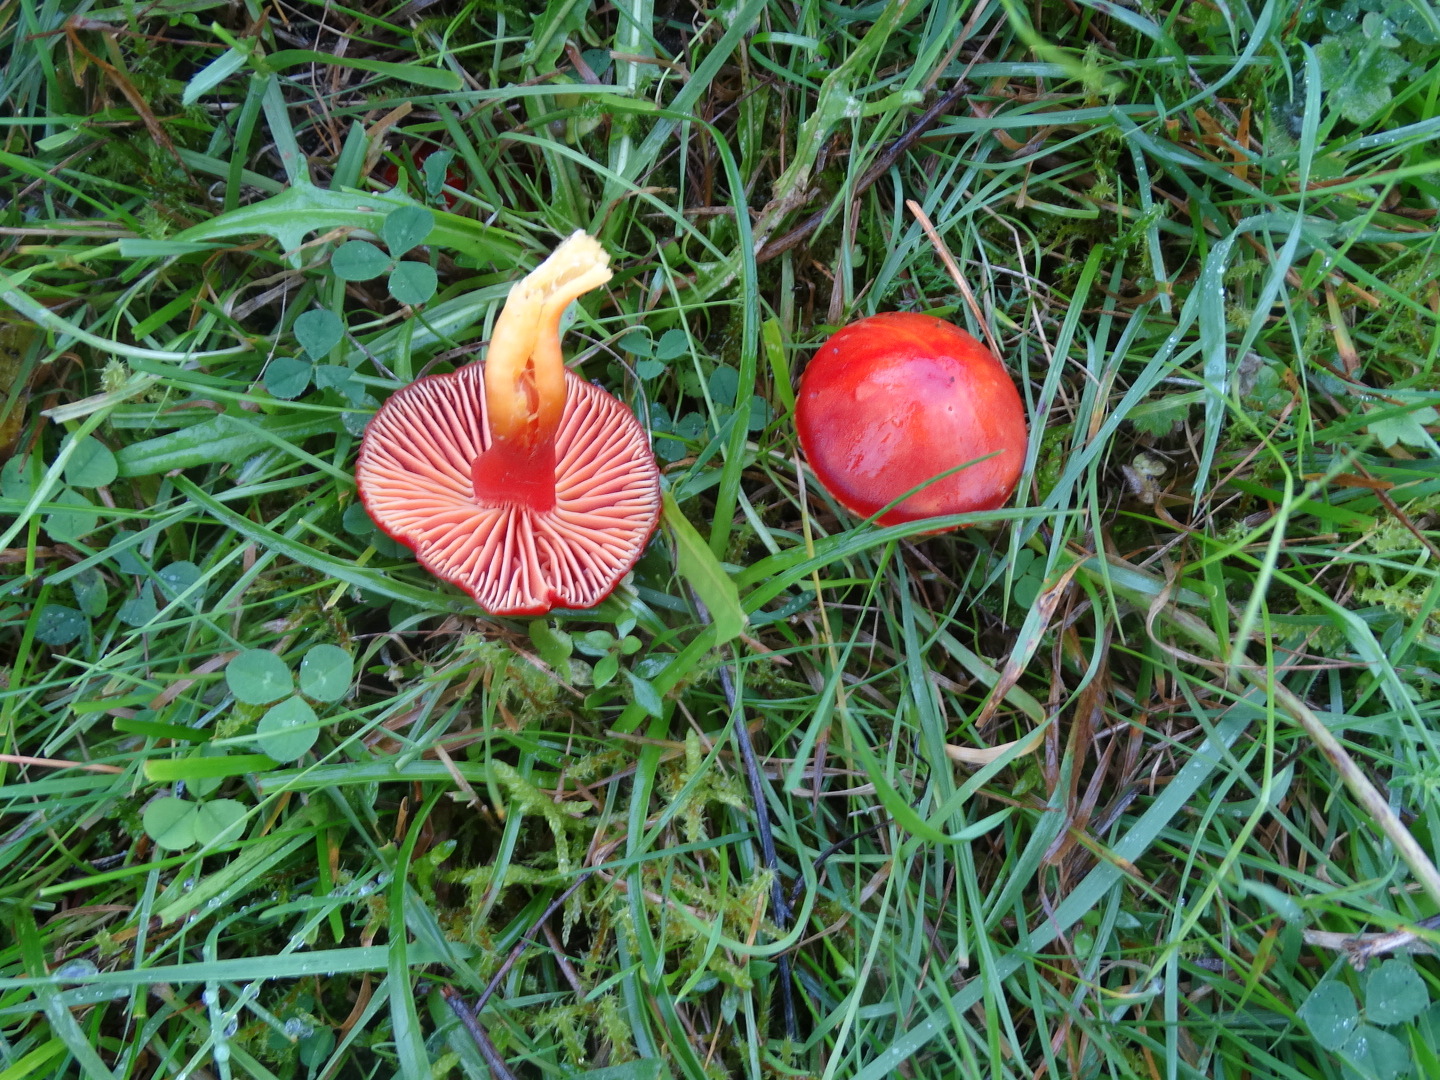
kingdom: Fungi
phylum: Basidiomycota
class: Agaricomycetes
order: Agaricales
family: Hygrophoraceae
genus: Hygrocybe
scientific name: Hygrocybe coccinea
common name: cinnober-vokshat
